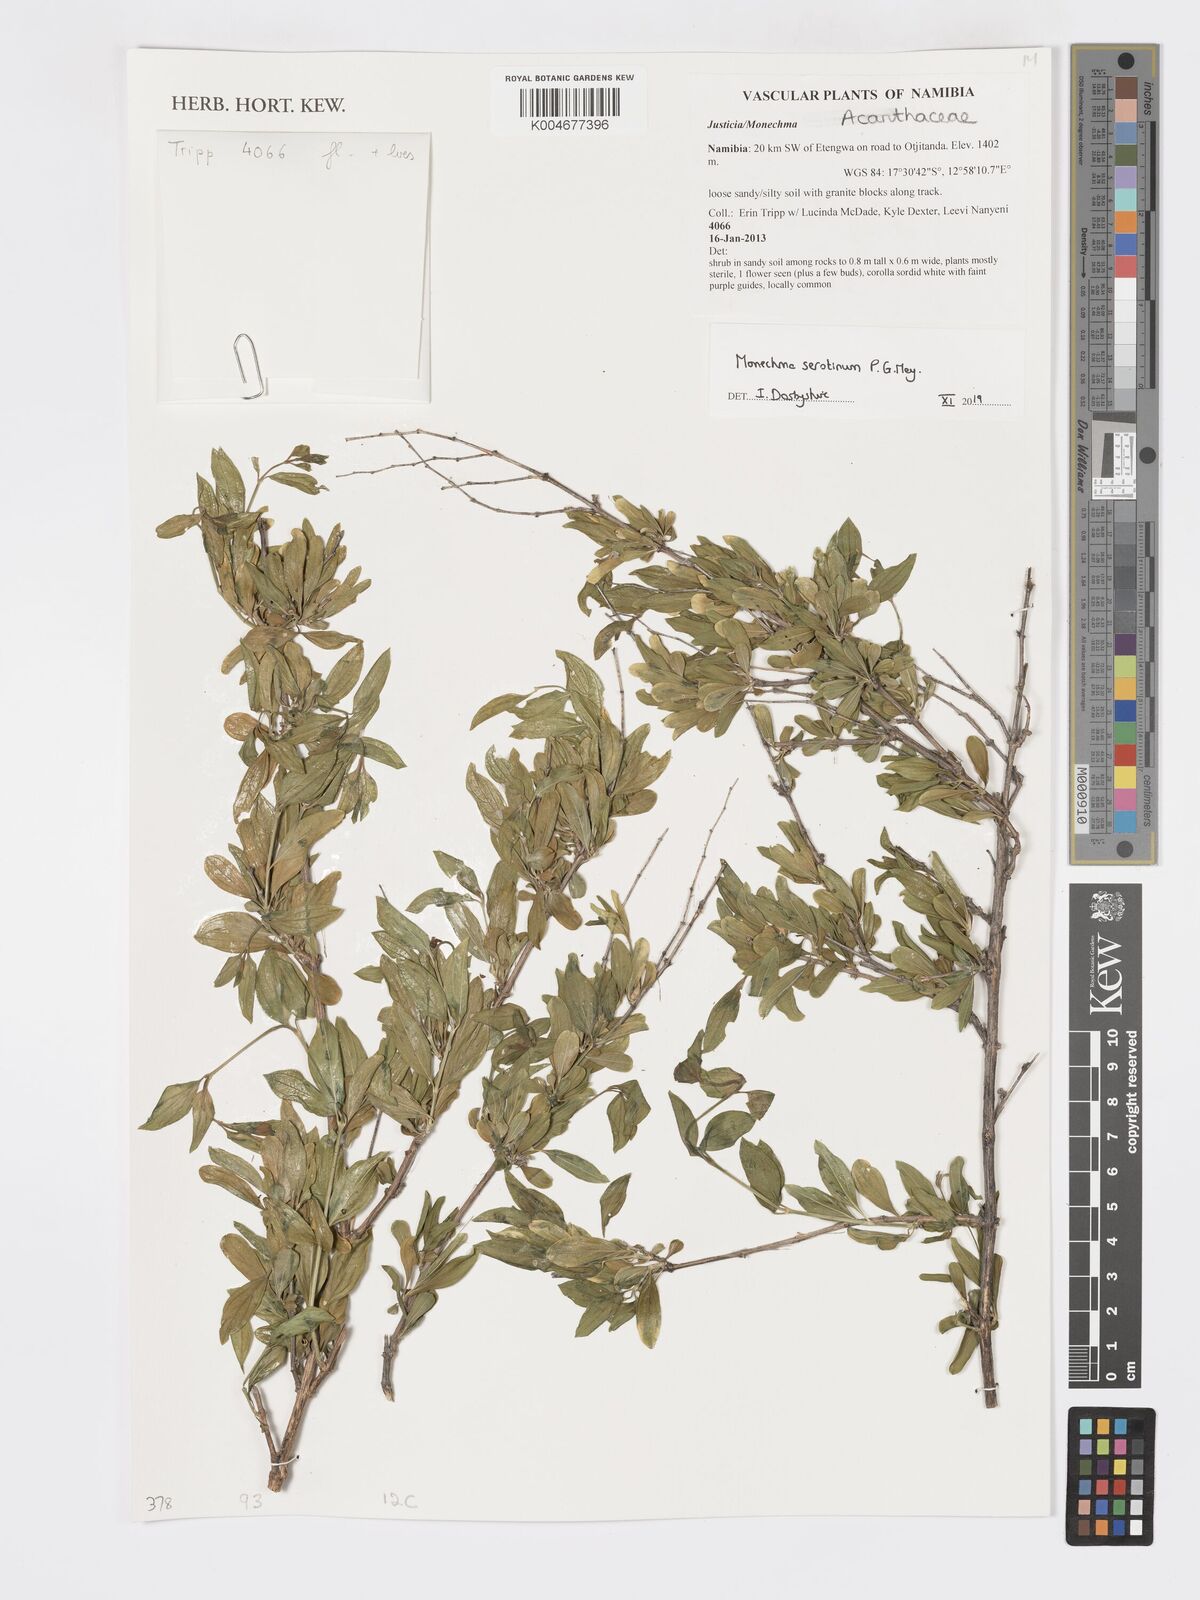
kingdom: Plantae
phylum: Tracheophyta
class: Magnoliopsida
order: Lamiales
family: Acanthaceae
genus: Pogonospermum
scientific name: Pogonospermum
